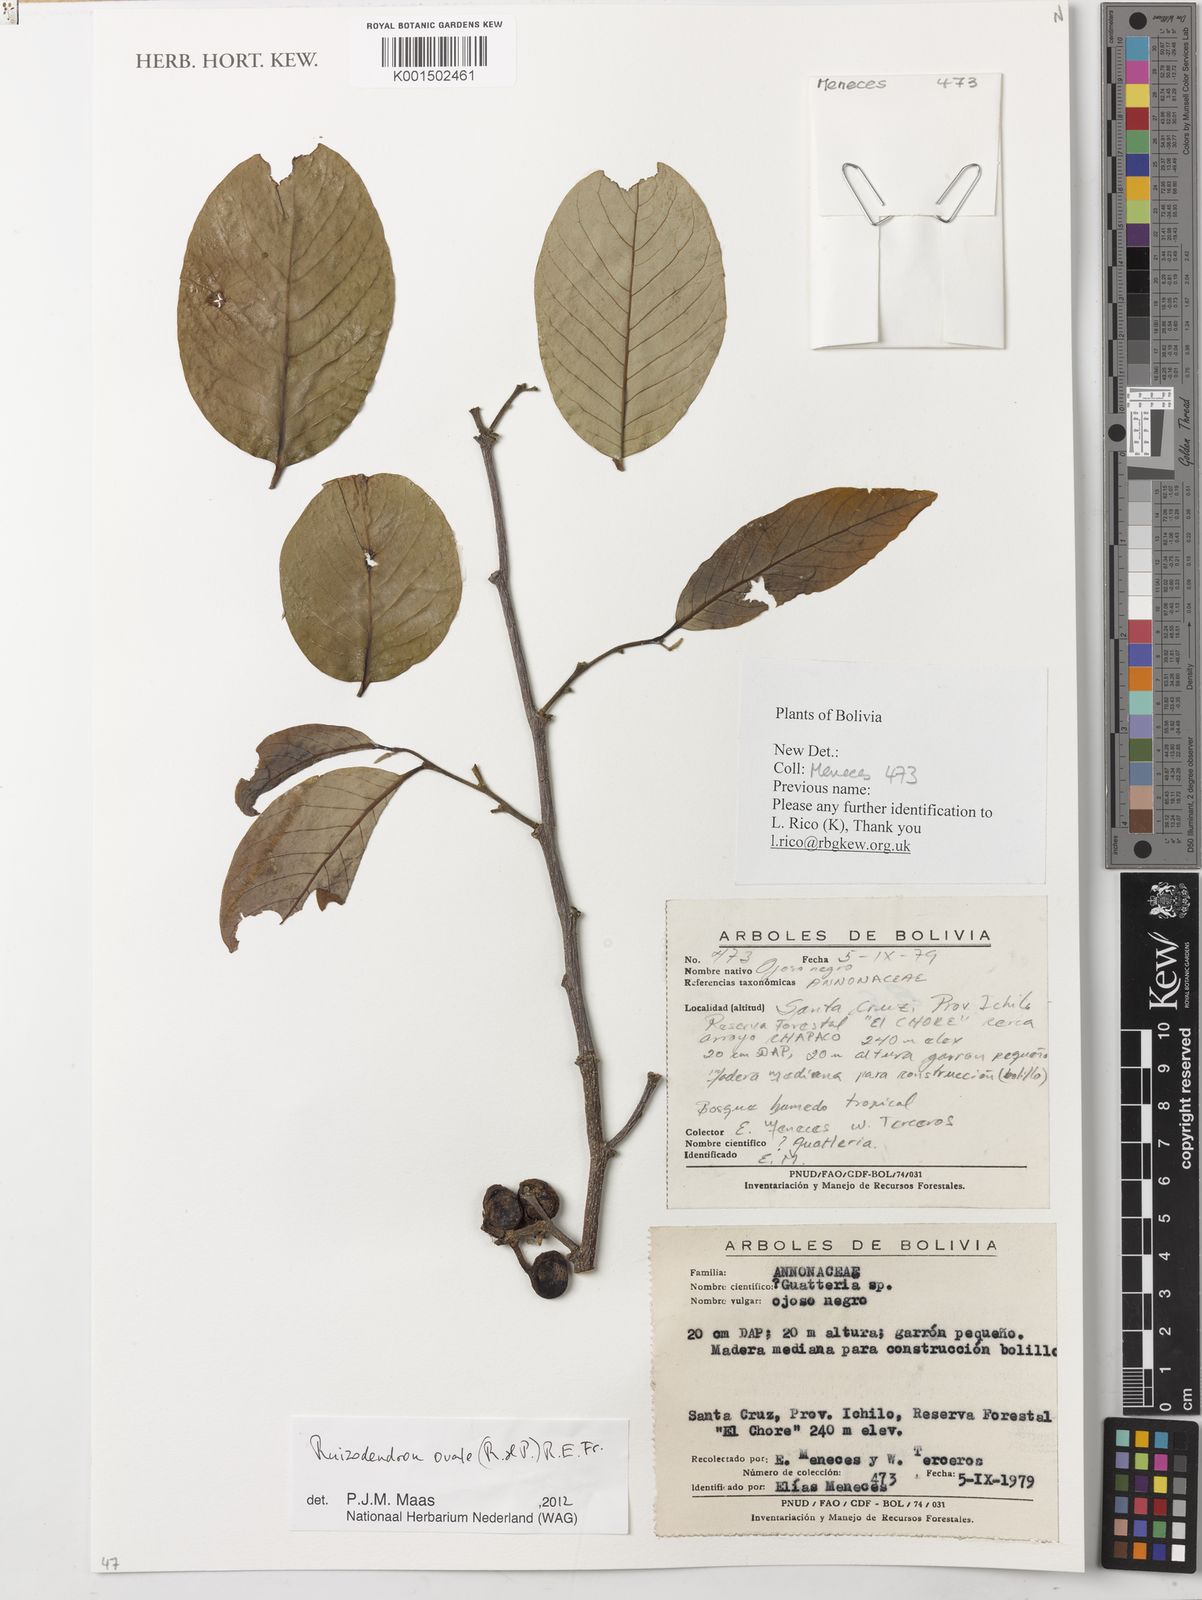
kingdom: Plantae
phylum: Tracheophyta
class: Magnoliopsida
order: Magnoliales
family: Annonaceae
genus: Ruizodendron
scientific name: Ruizodendron ovale
